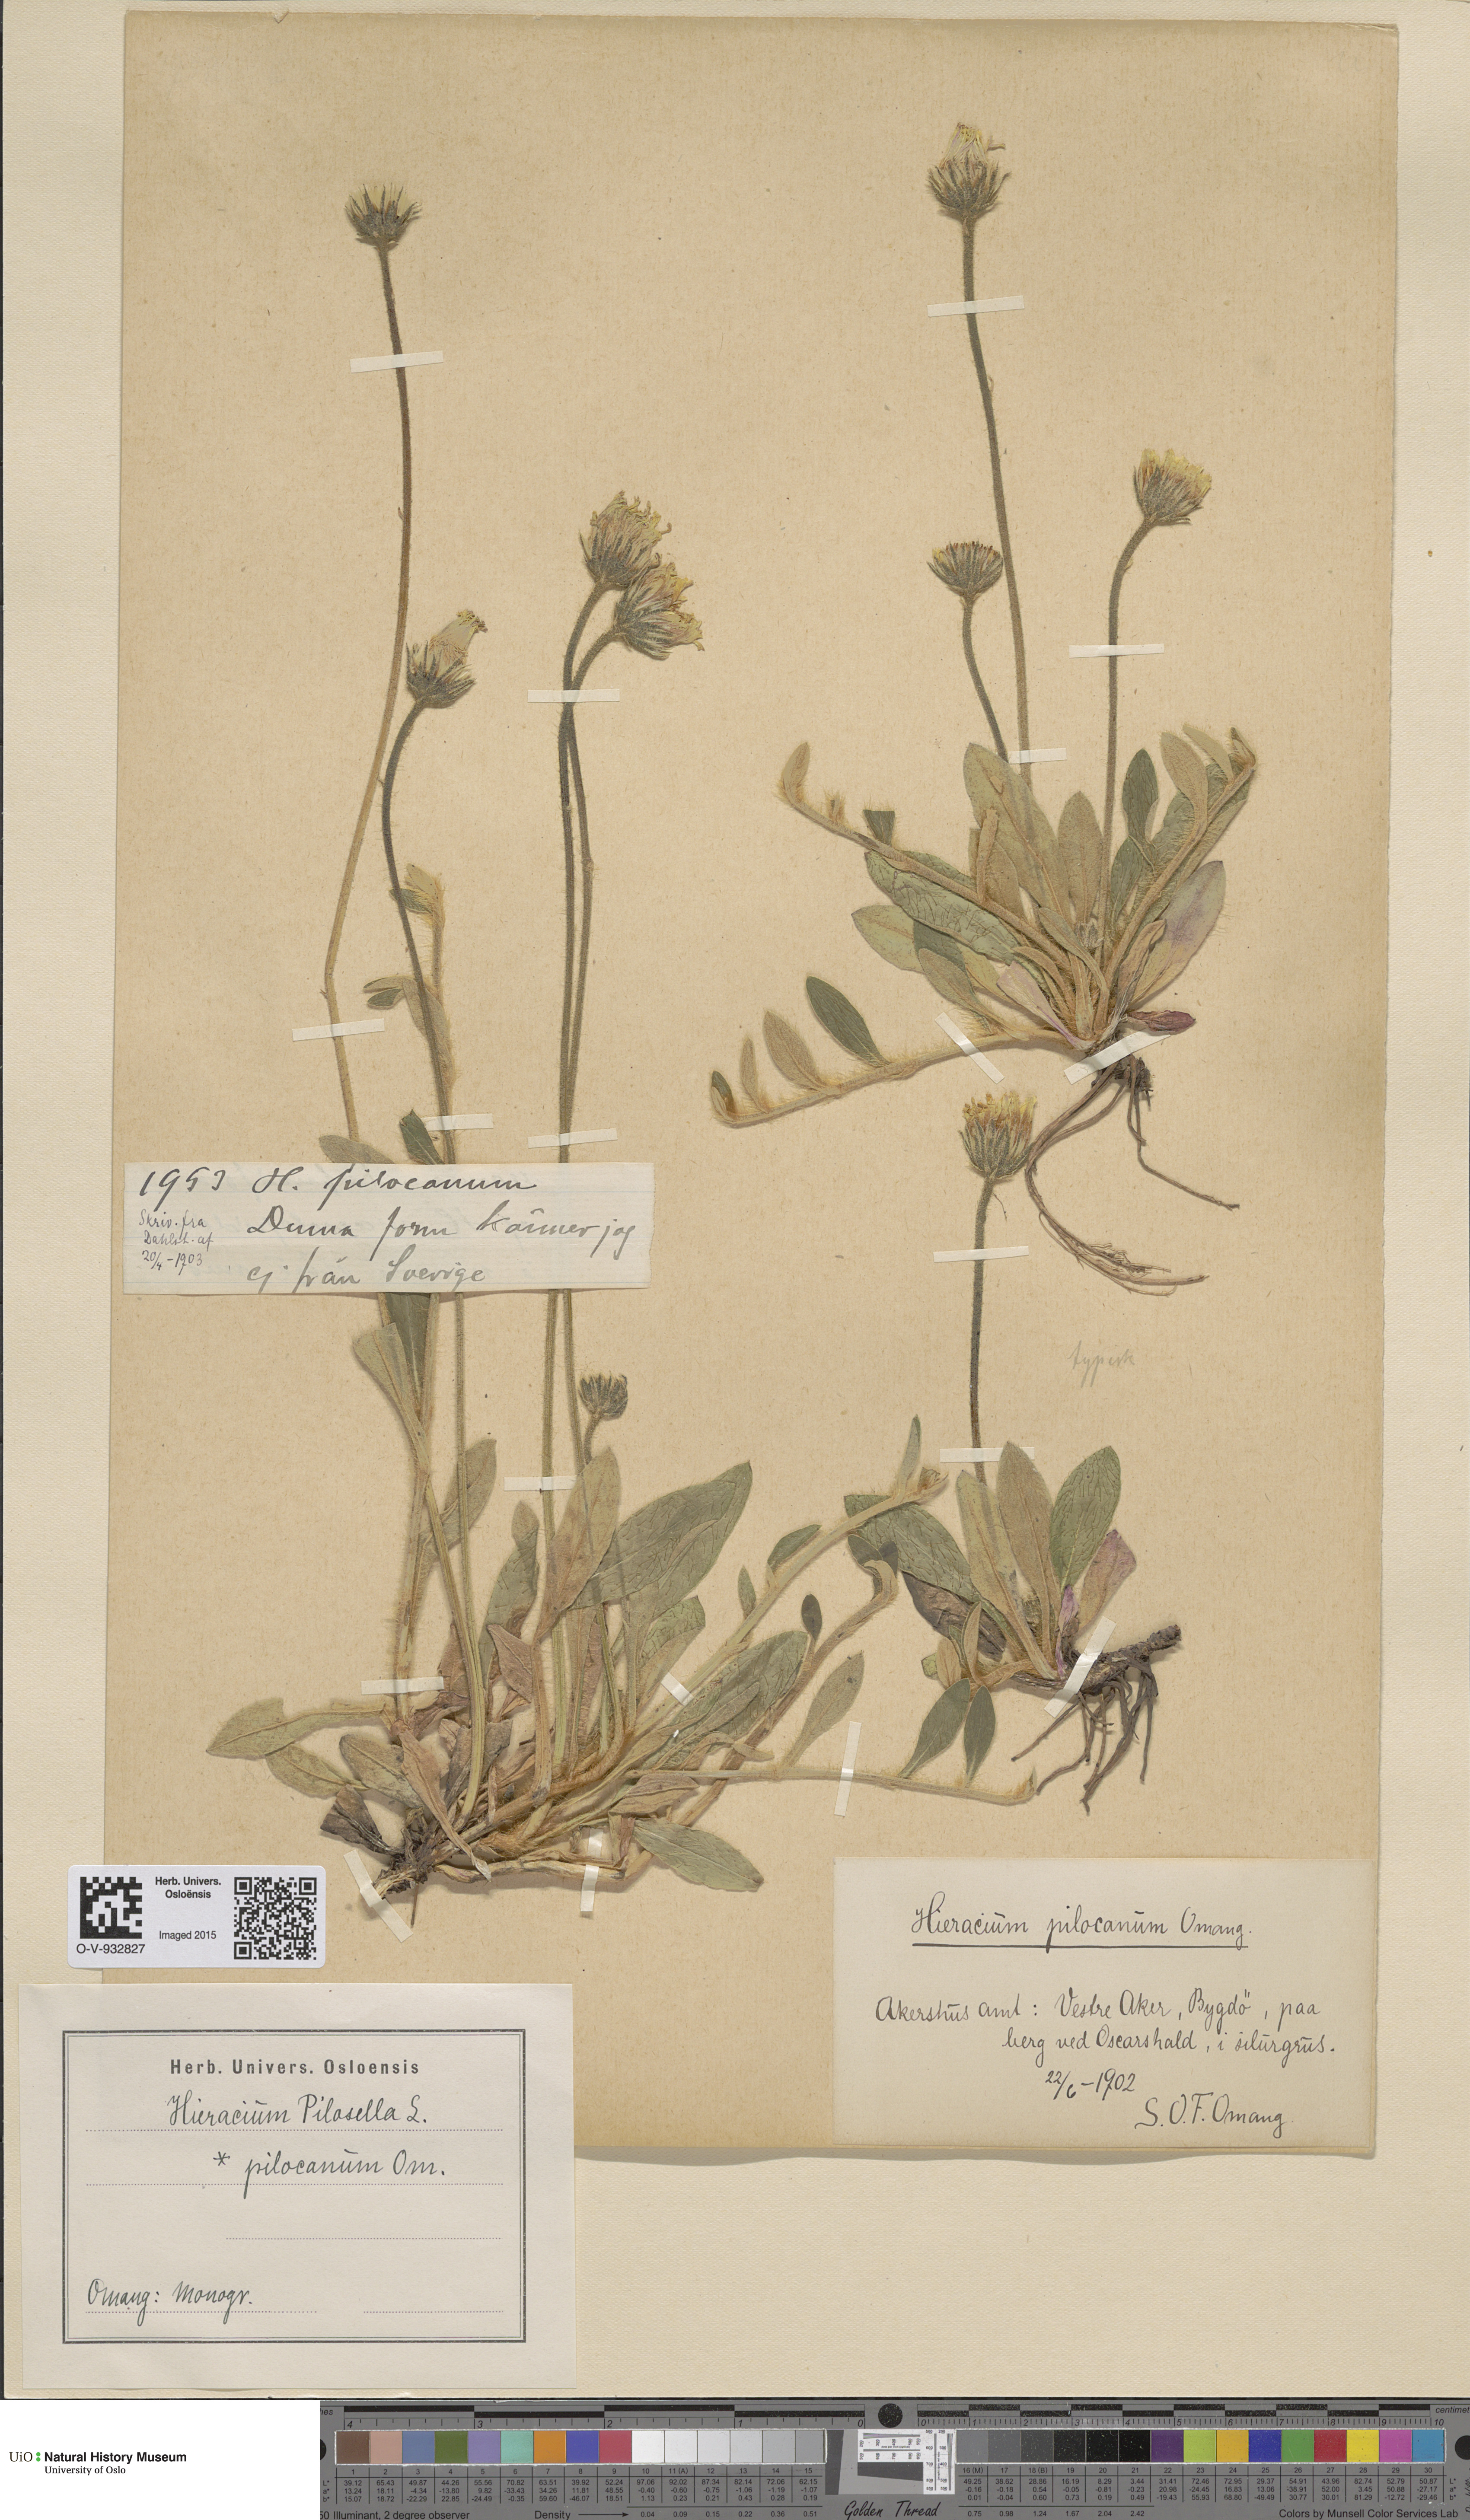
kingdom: Plantae
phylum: Tracheophyta
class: Magnoliopsida
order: Asterales
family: Asteraceae
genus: Pilosella
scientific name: Pilosella officinarum
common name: Mouse-ear hawkweed
